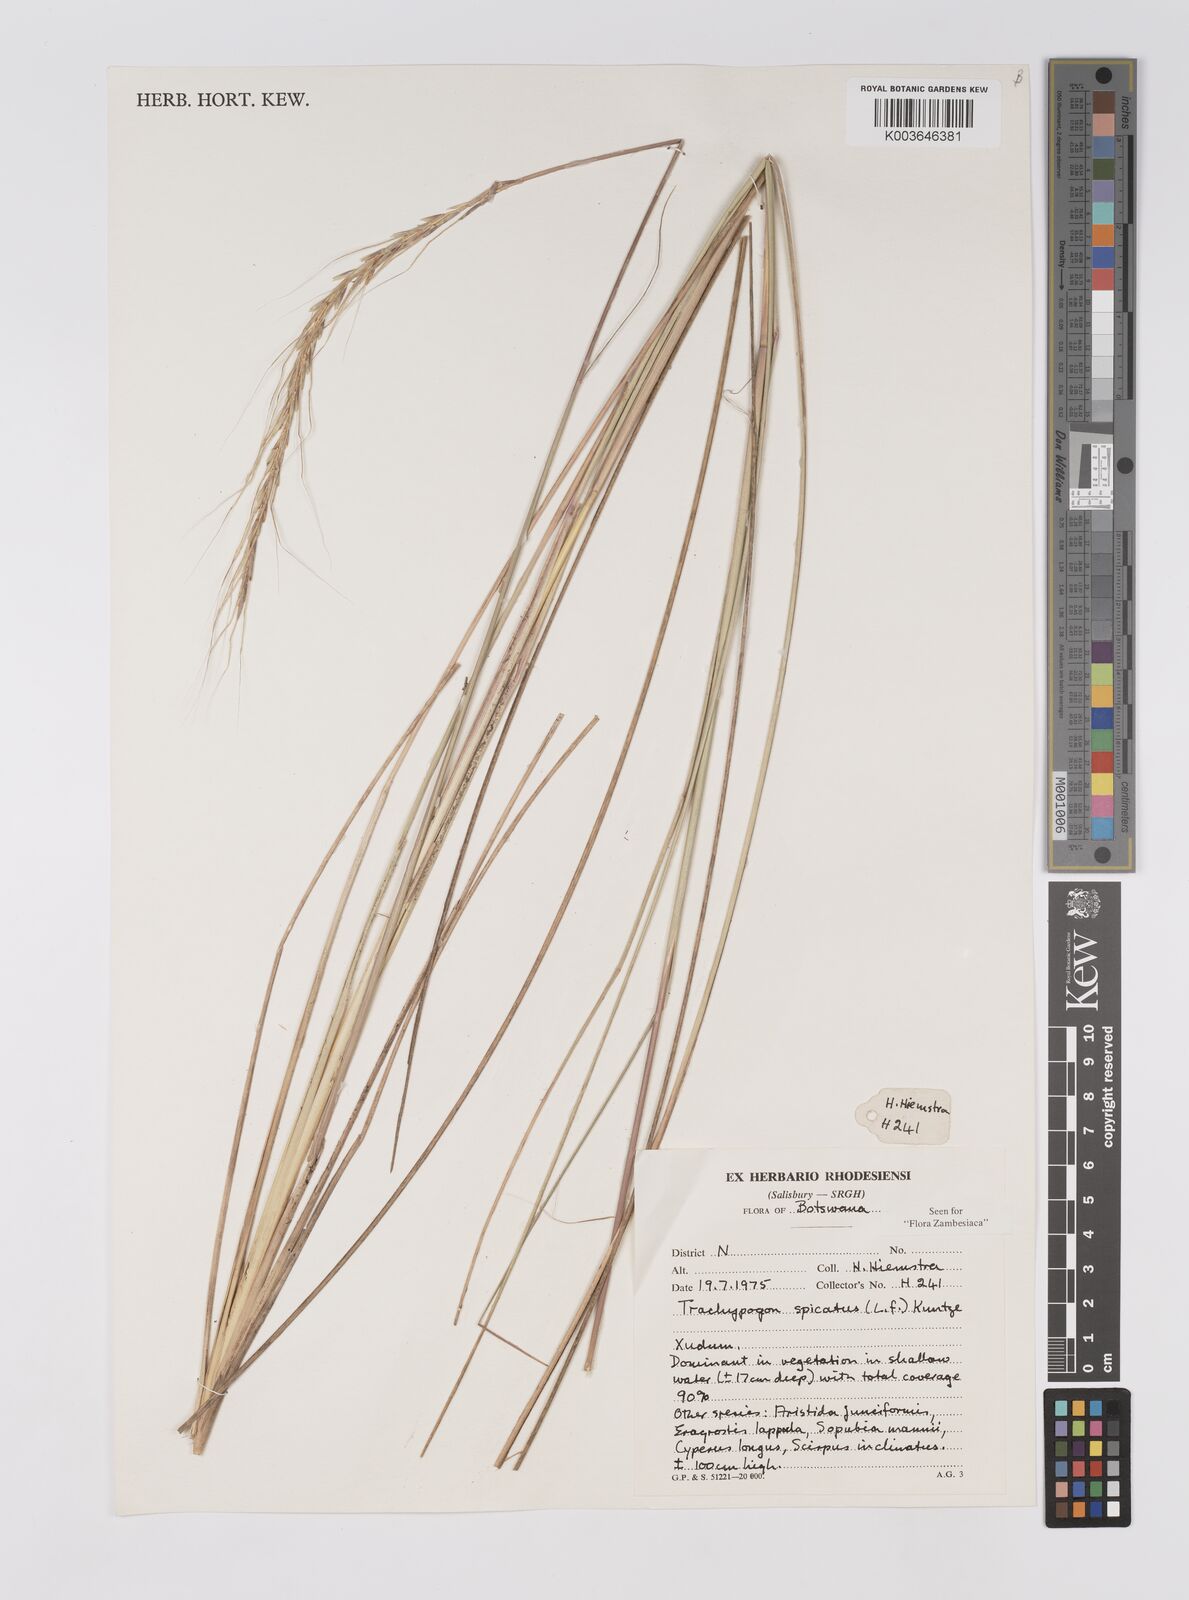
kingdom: Plantae
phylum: Tracheophyta
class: Liliopsida
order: Poales
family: Poaceae
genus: Trachypogon
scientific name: Trachypogon spicatus
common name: Crinkle-awn
